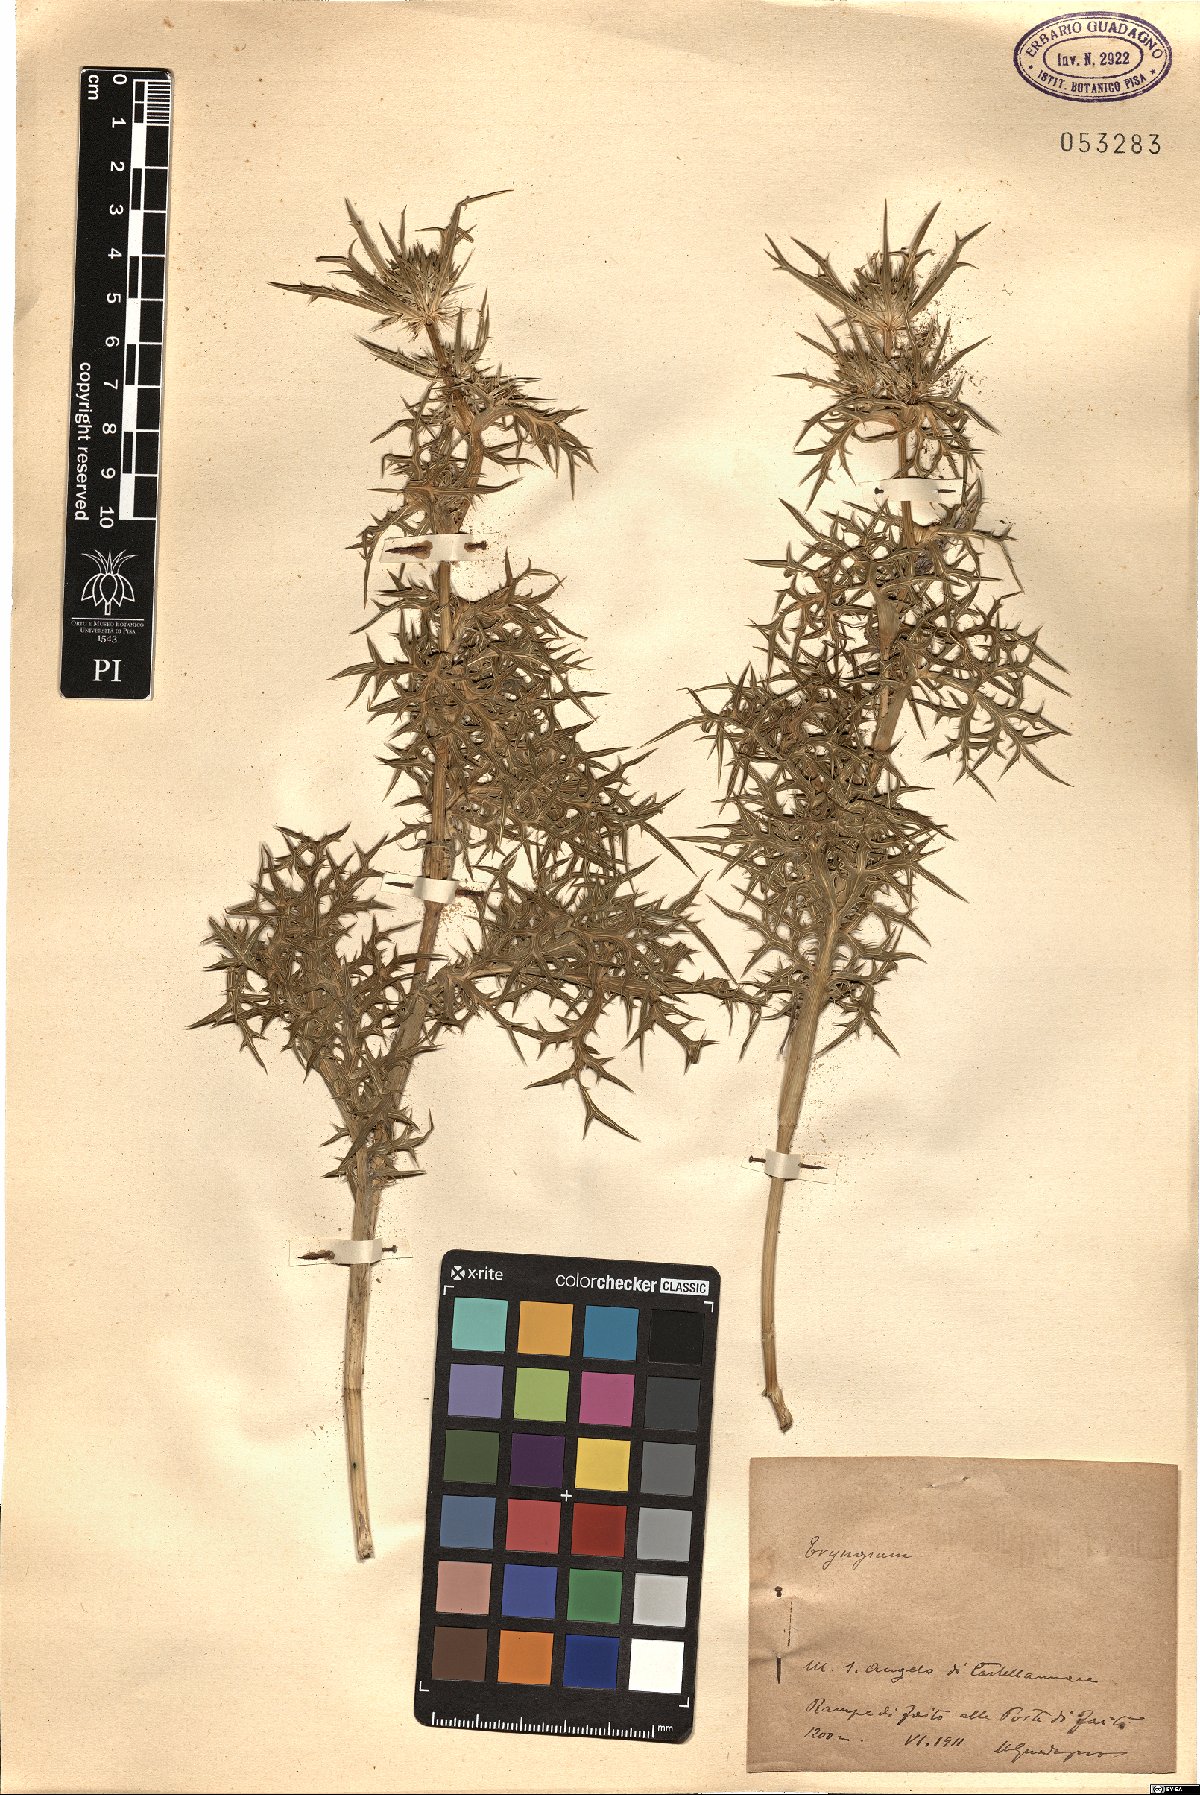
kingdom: Plantae
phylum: Tracheophyta
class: Magnoliopsida
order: Apiales
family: Apiaceae
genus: Eryngium
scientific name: Eryngium
